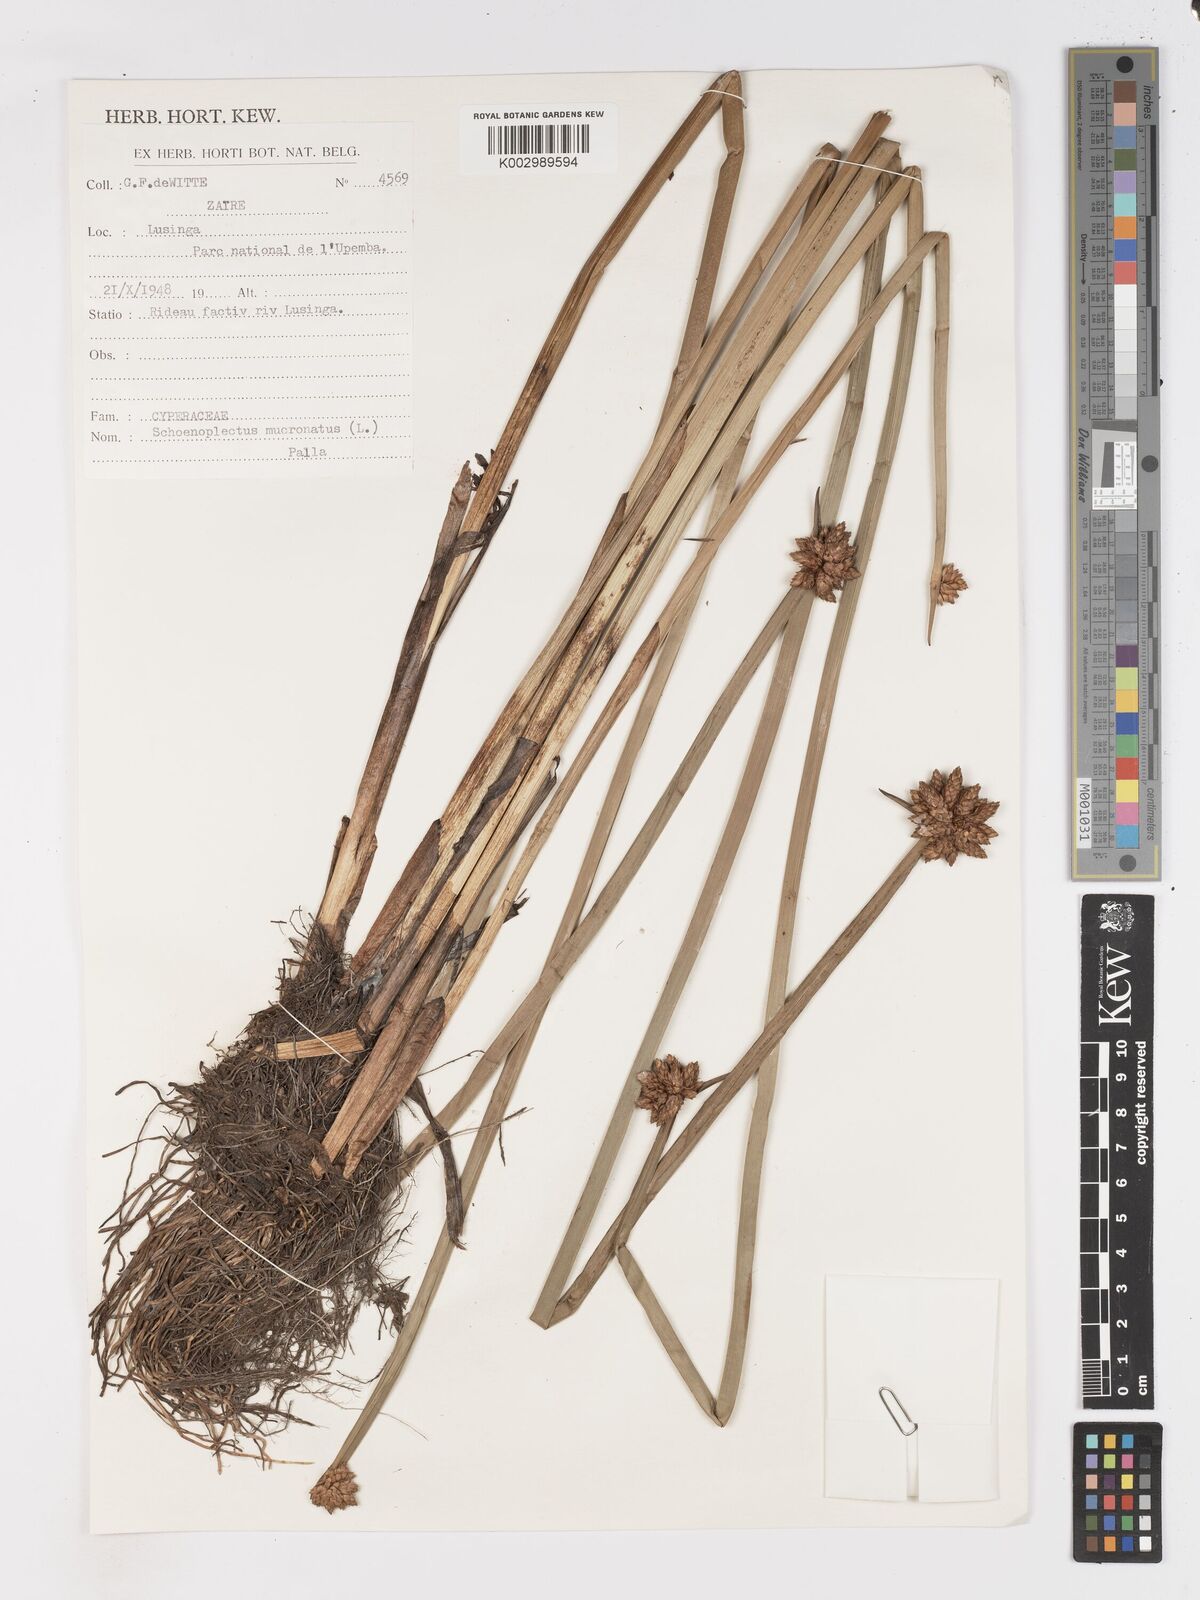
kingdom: Plantae
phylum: Tracheophyta
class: Liliopsida
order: Poales
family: Cyperaceae
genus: Schoenoplectiella
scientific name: Schoenoplectiella mucronata
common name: Bog bulrush
